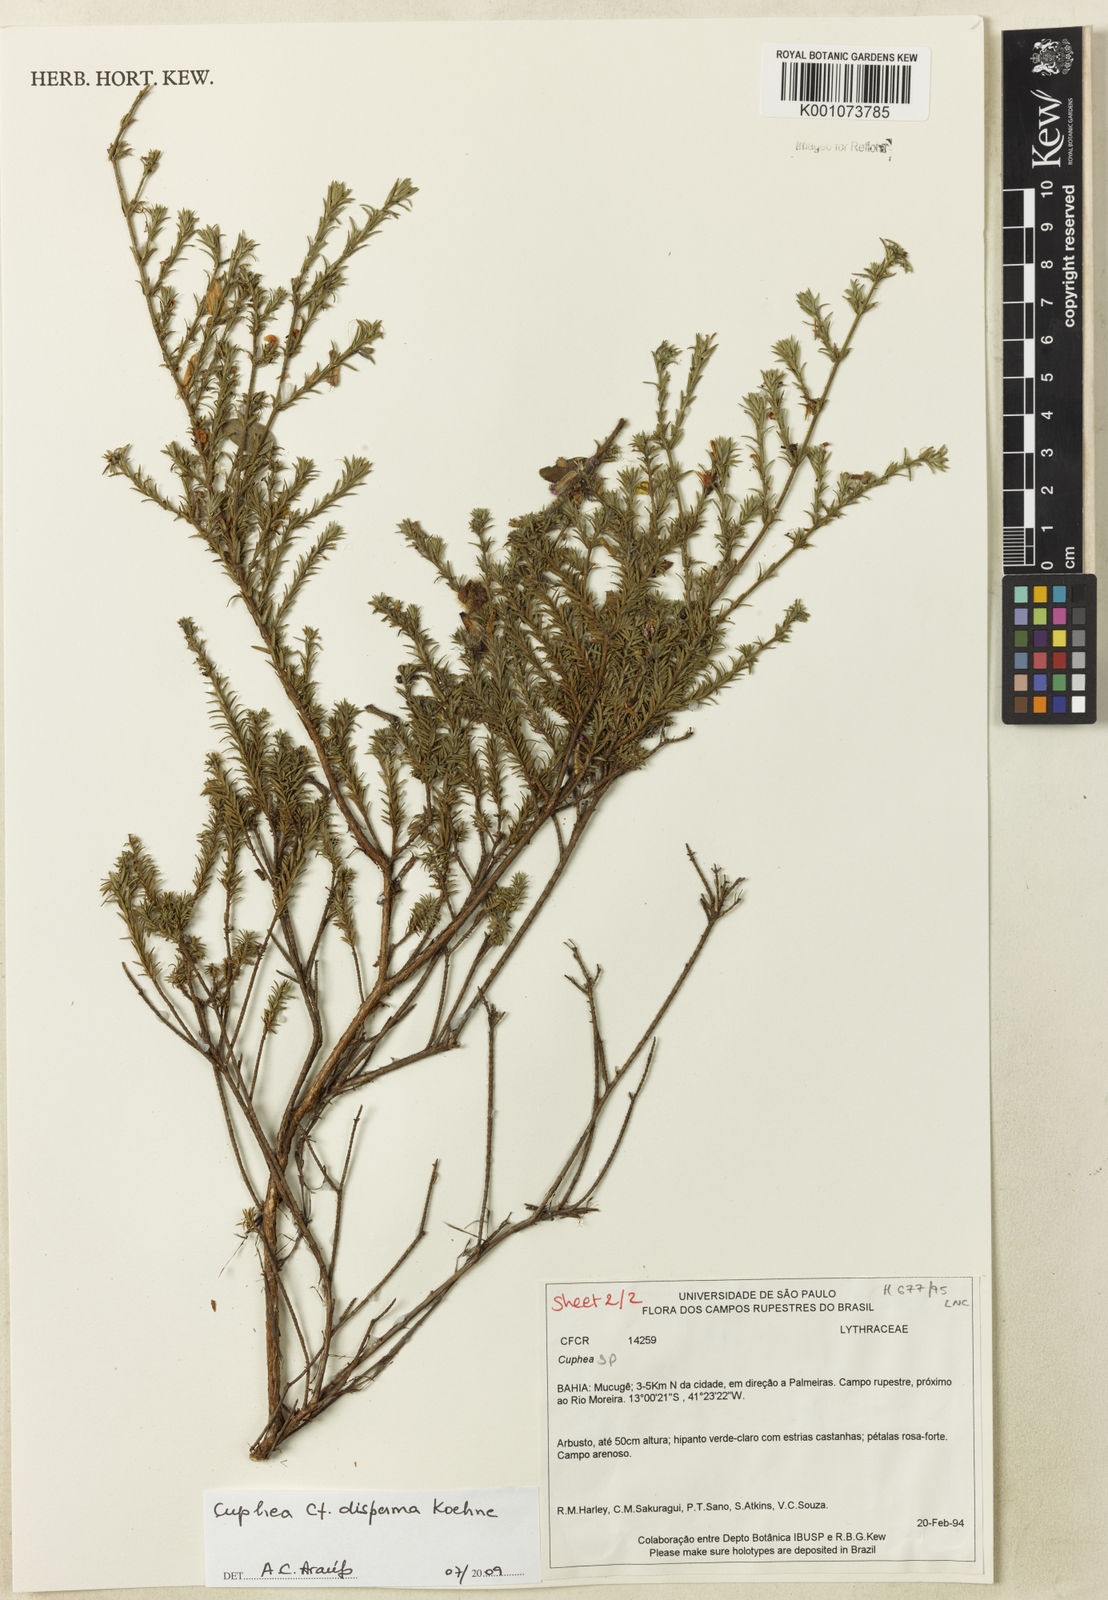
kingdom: Plantae
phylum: Tracheophyta
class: Magnoliopsida
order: Myrtales
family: Lythraceae
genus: Cuphea
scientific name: Cuphea disperma
